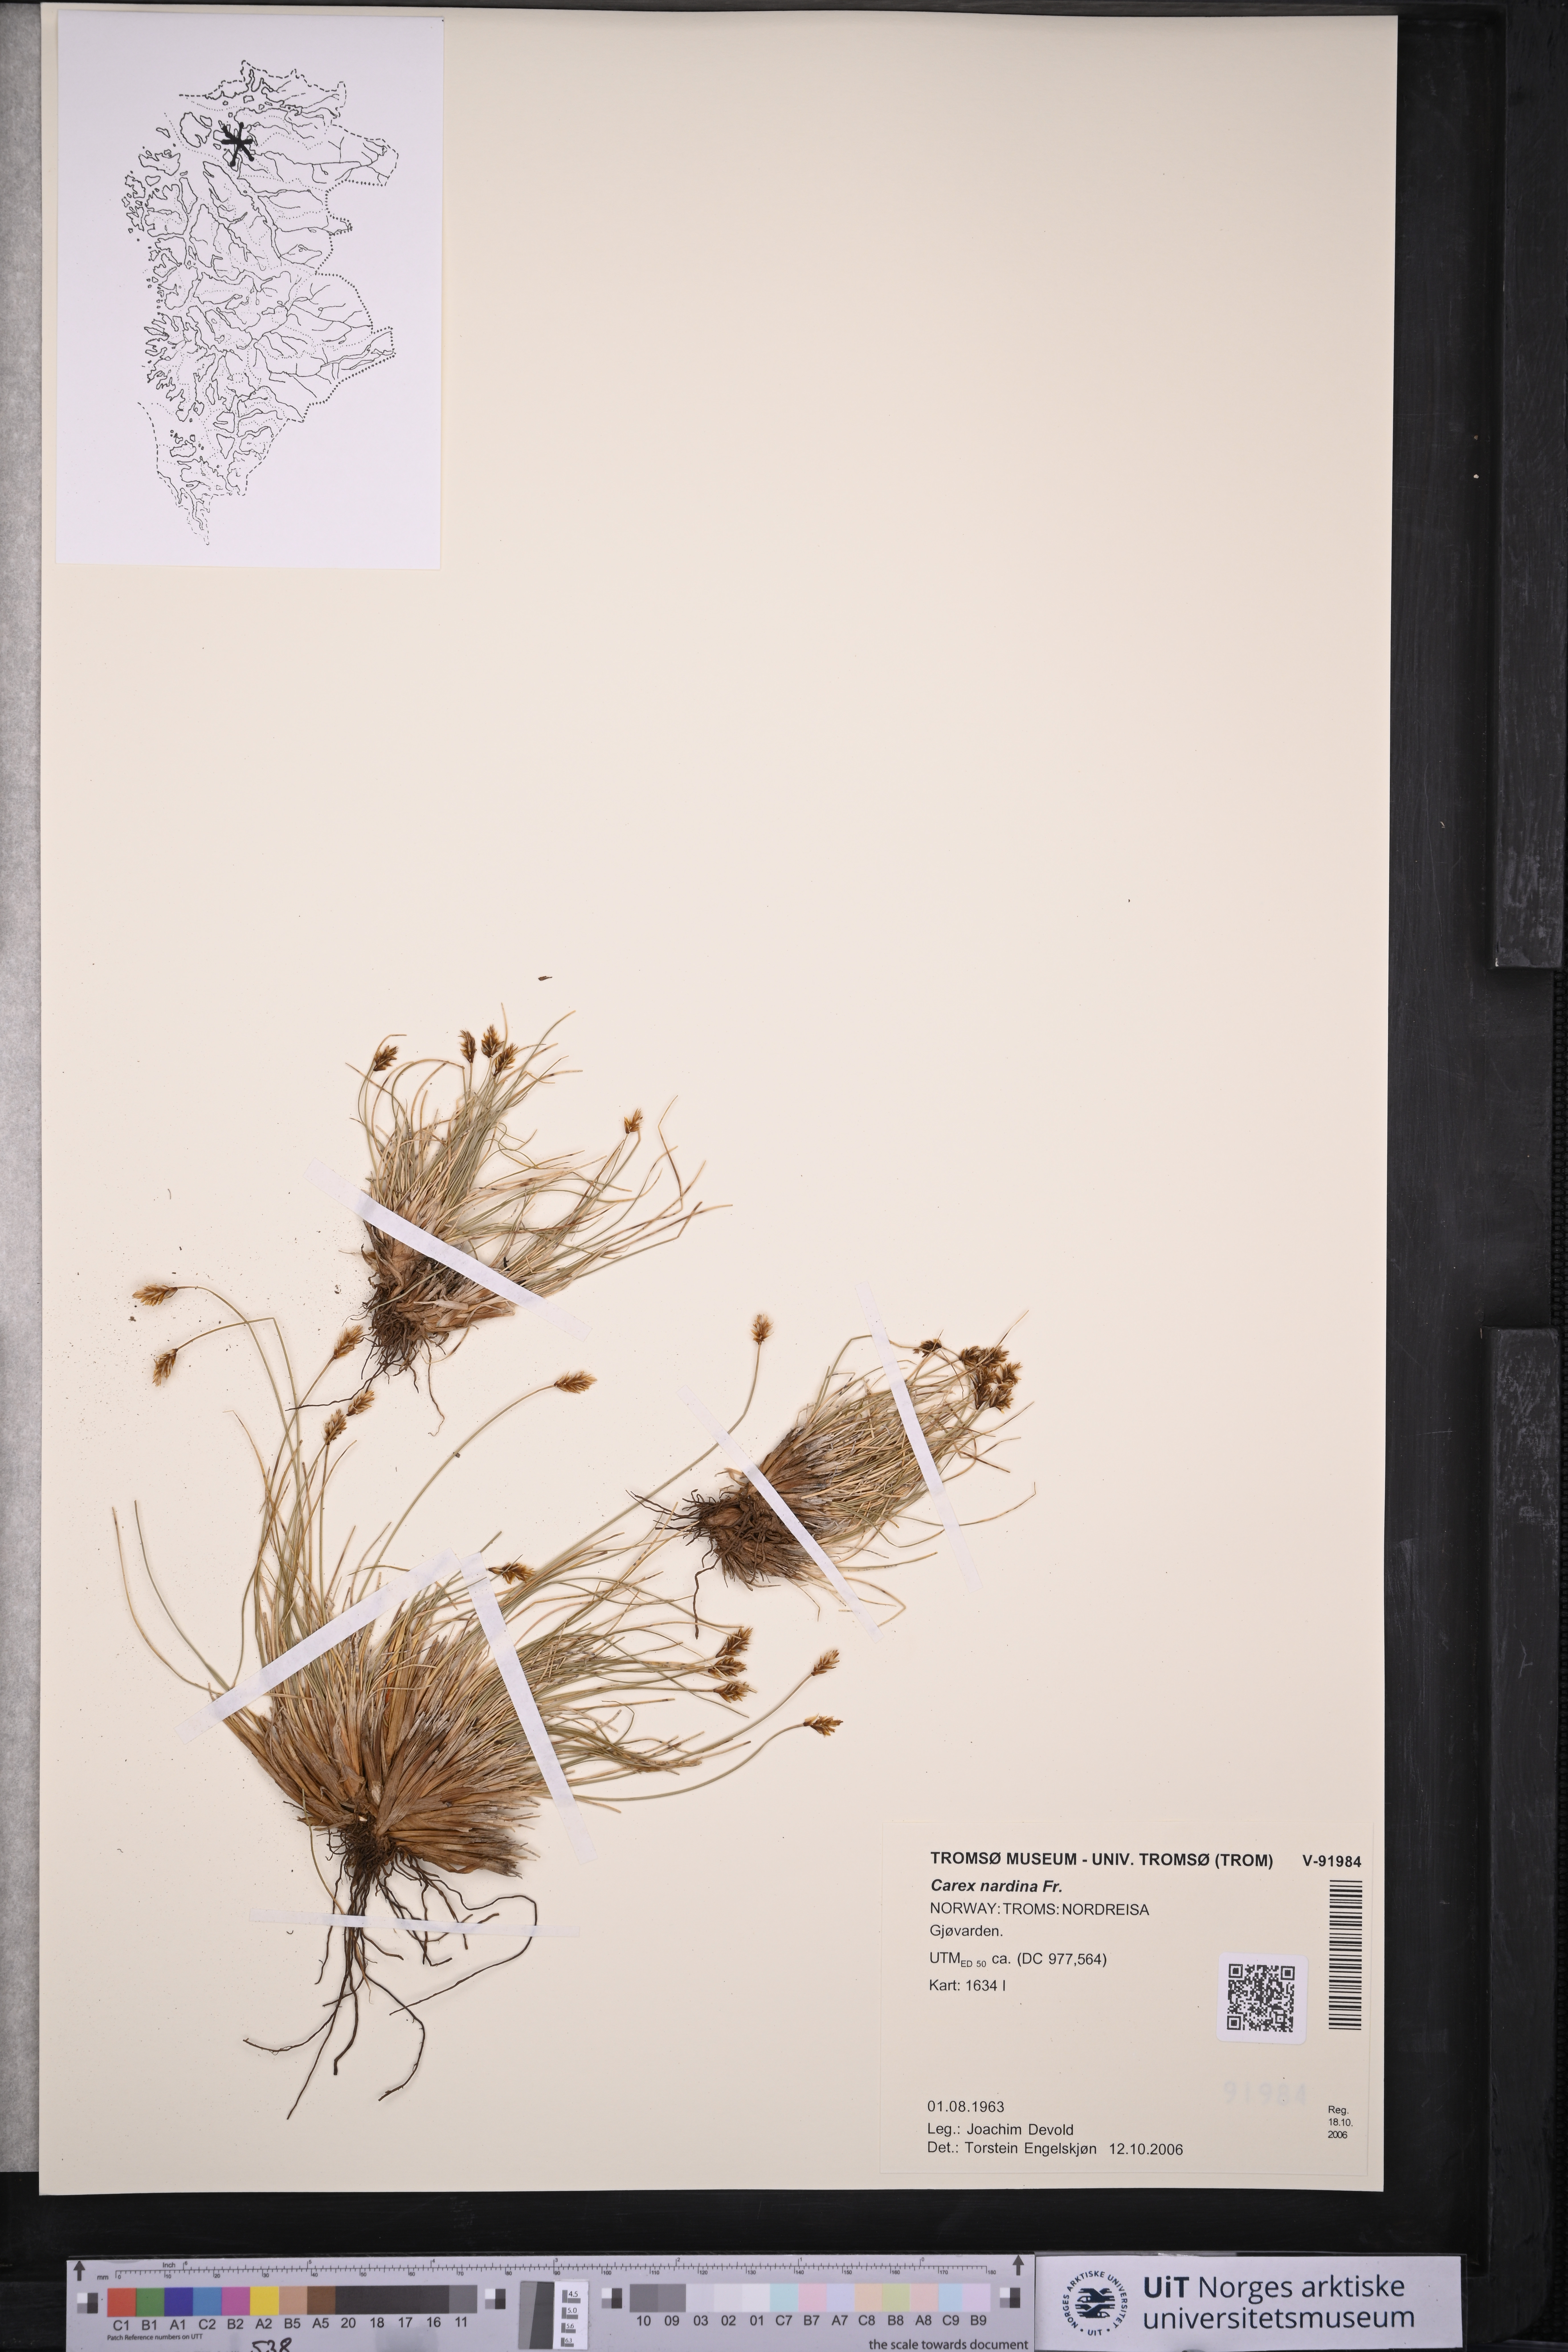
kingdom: Plantae
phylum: Tracheophyta
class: Liliopsida
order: Poales
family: Cyperaceae
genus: Carex
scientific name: Carex nardina
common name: Nard sedge
